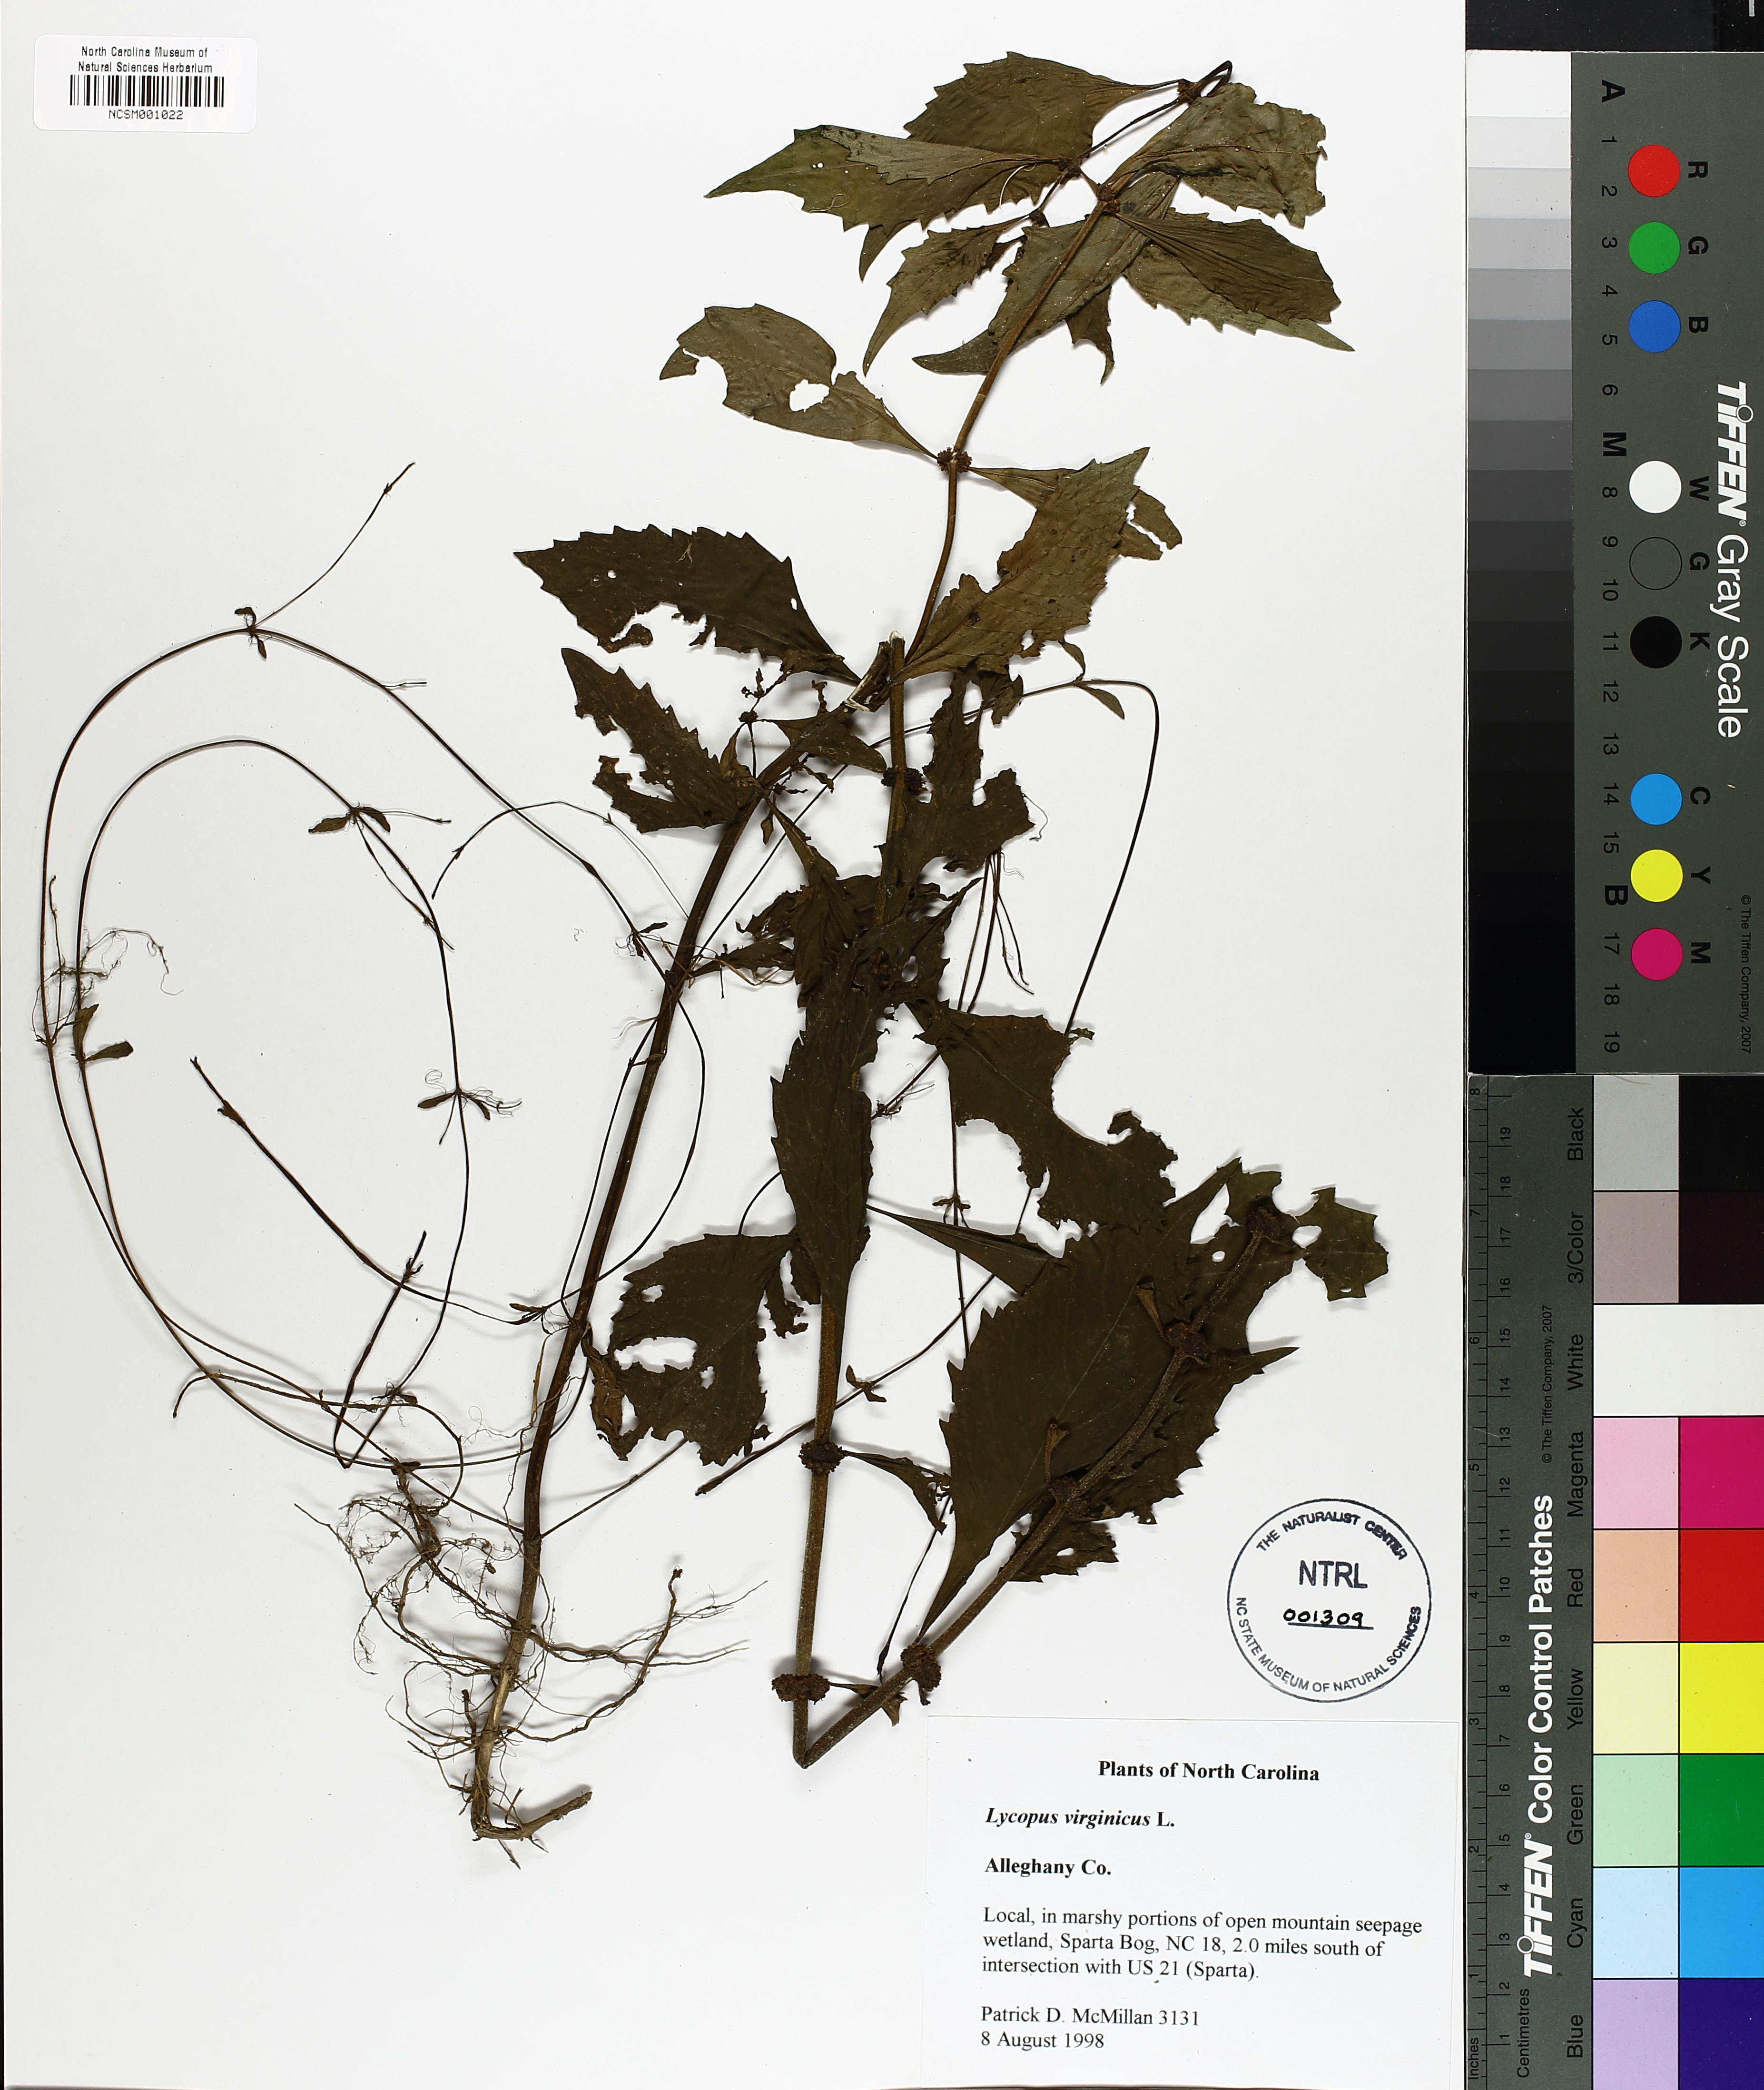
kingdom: Plantae
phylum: Tracheophyta
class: Magnoliopsida
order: Lamiales
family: Lamiaceae
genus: Lycopus
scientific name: Lycopus virginicus
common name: Bugleweed
